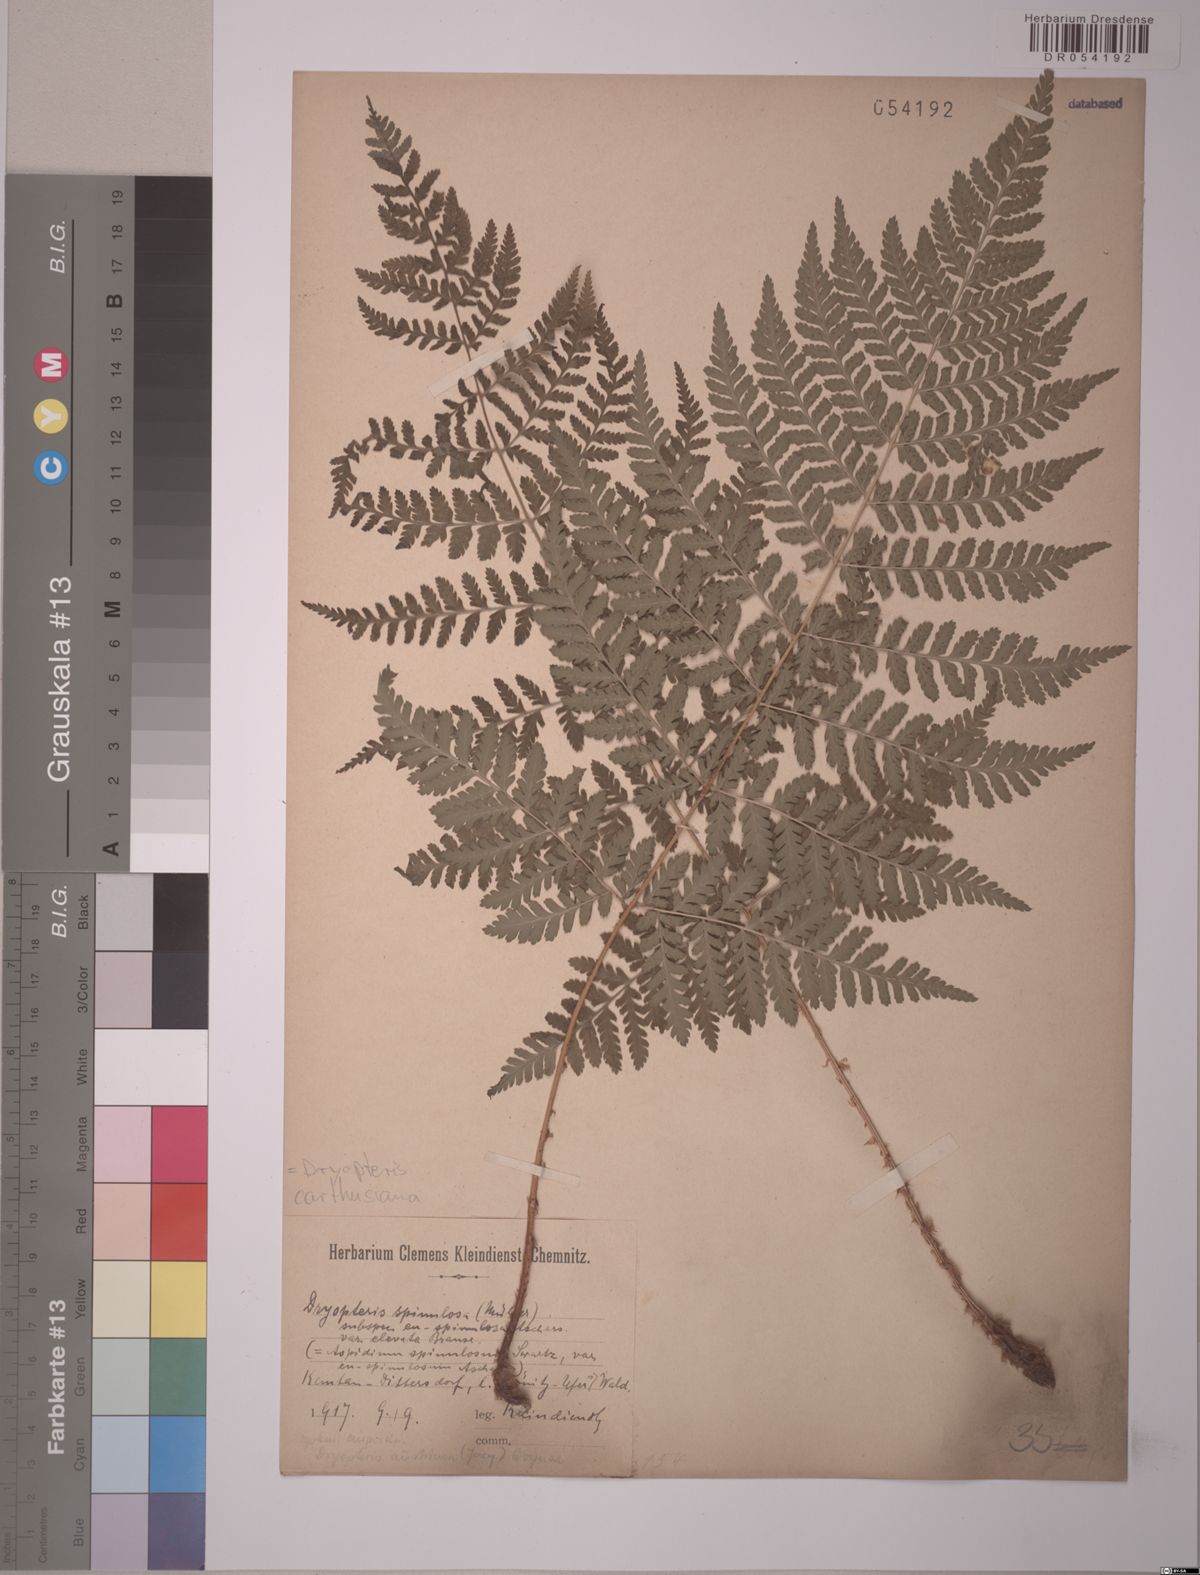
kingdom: Plantae
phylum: Tracheophyta
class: Polypodiopsida
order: Polypodiales
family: Dryopteridaceae
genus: Dryopteris
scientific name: Dryopteris carthusiana
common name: Narrow buckler-fern
